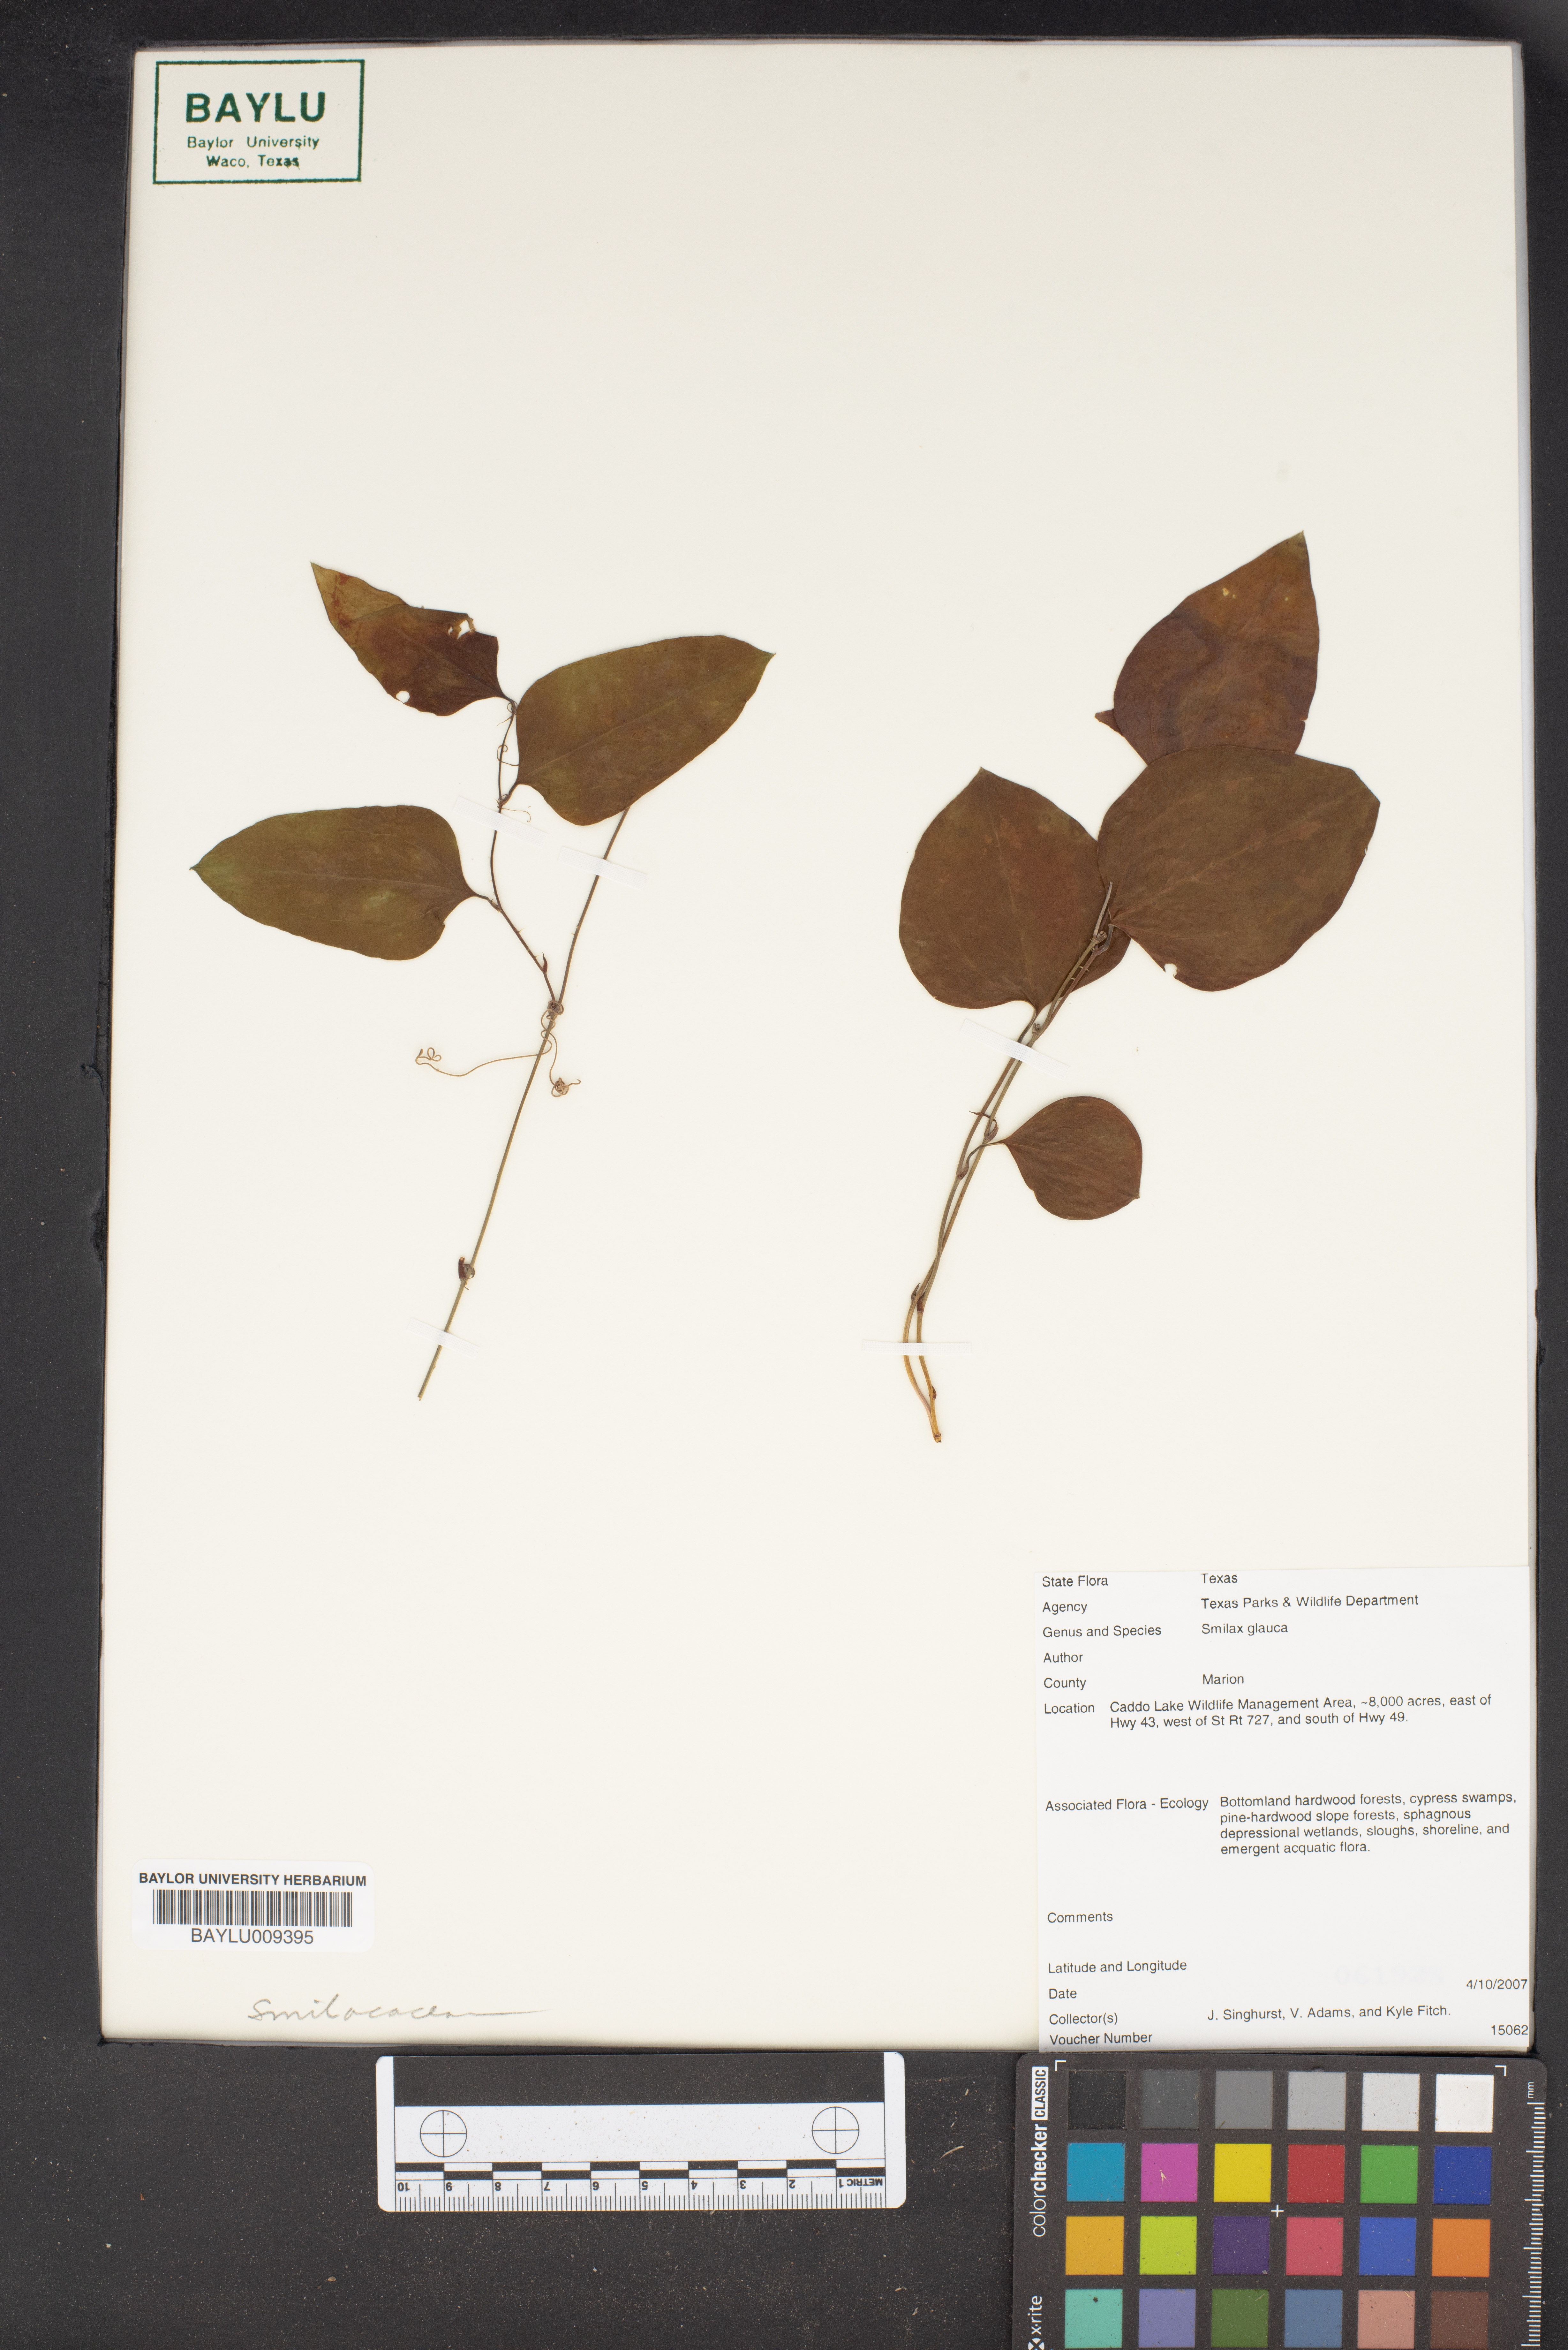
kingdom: Plantae
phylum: Tracheophyta
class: Liliopsida
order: Liliales
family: Smilacaceae
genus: Smilax
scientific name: Smilax glauca
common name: Cat greenbrier
